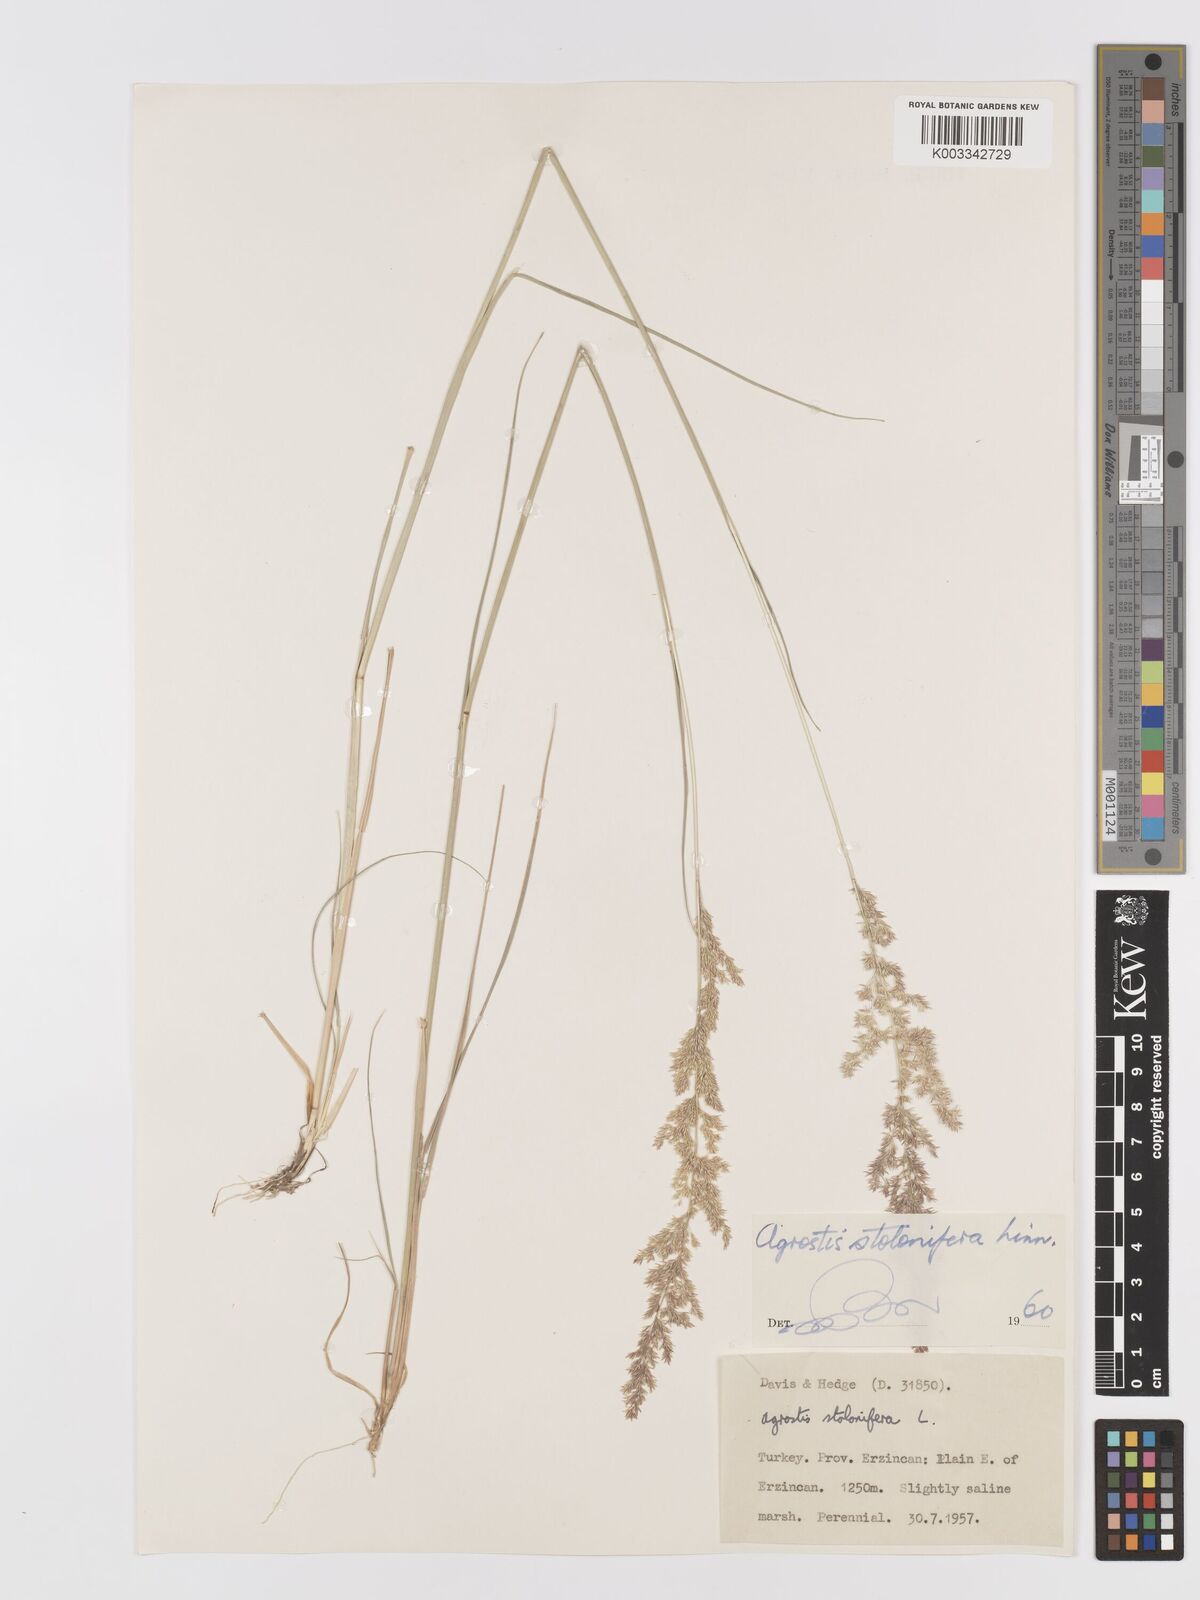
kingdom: Plantae
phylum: Tracheophyta
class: Liliopsida
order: Poales
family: Poaceae
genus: Agrostis
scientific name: Agrostis stolonifera
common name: Creeping bentgrass
